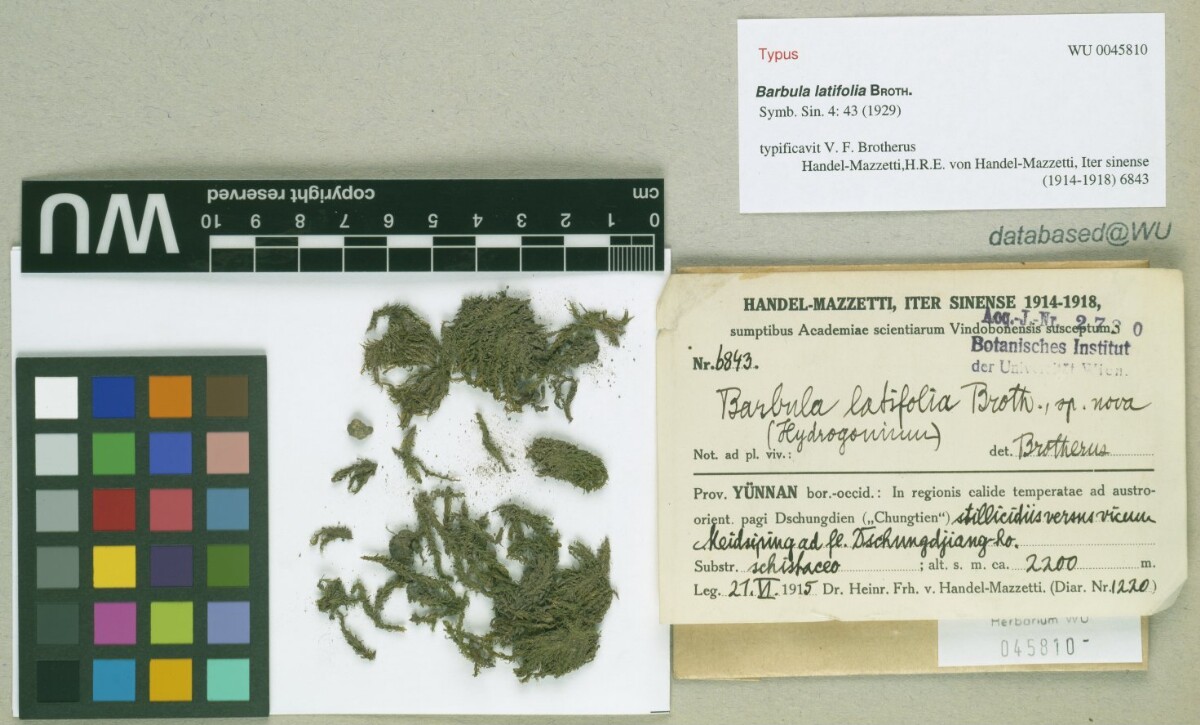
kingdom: Plantae
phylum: Bryophyta
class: Bryopsida
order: Pottiales
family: Pottiaceae
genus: Hydrogonium
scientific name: Hydrogonium bolleanum
